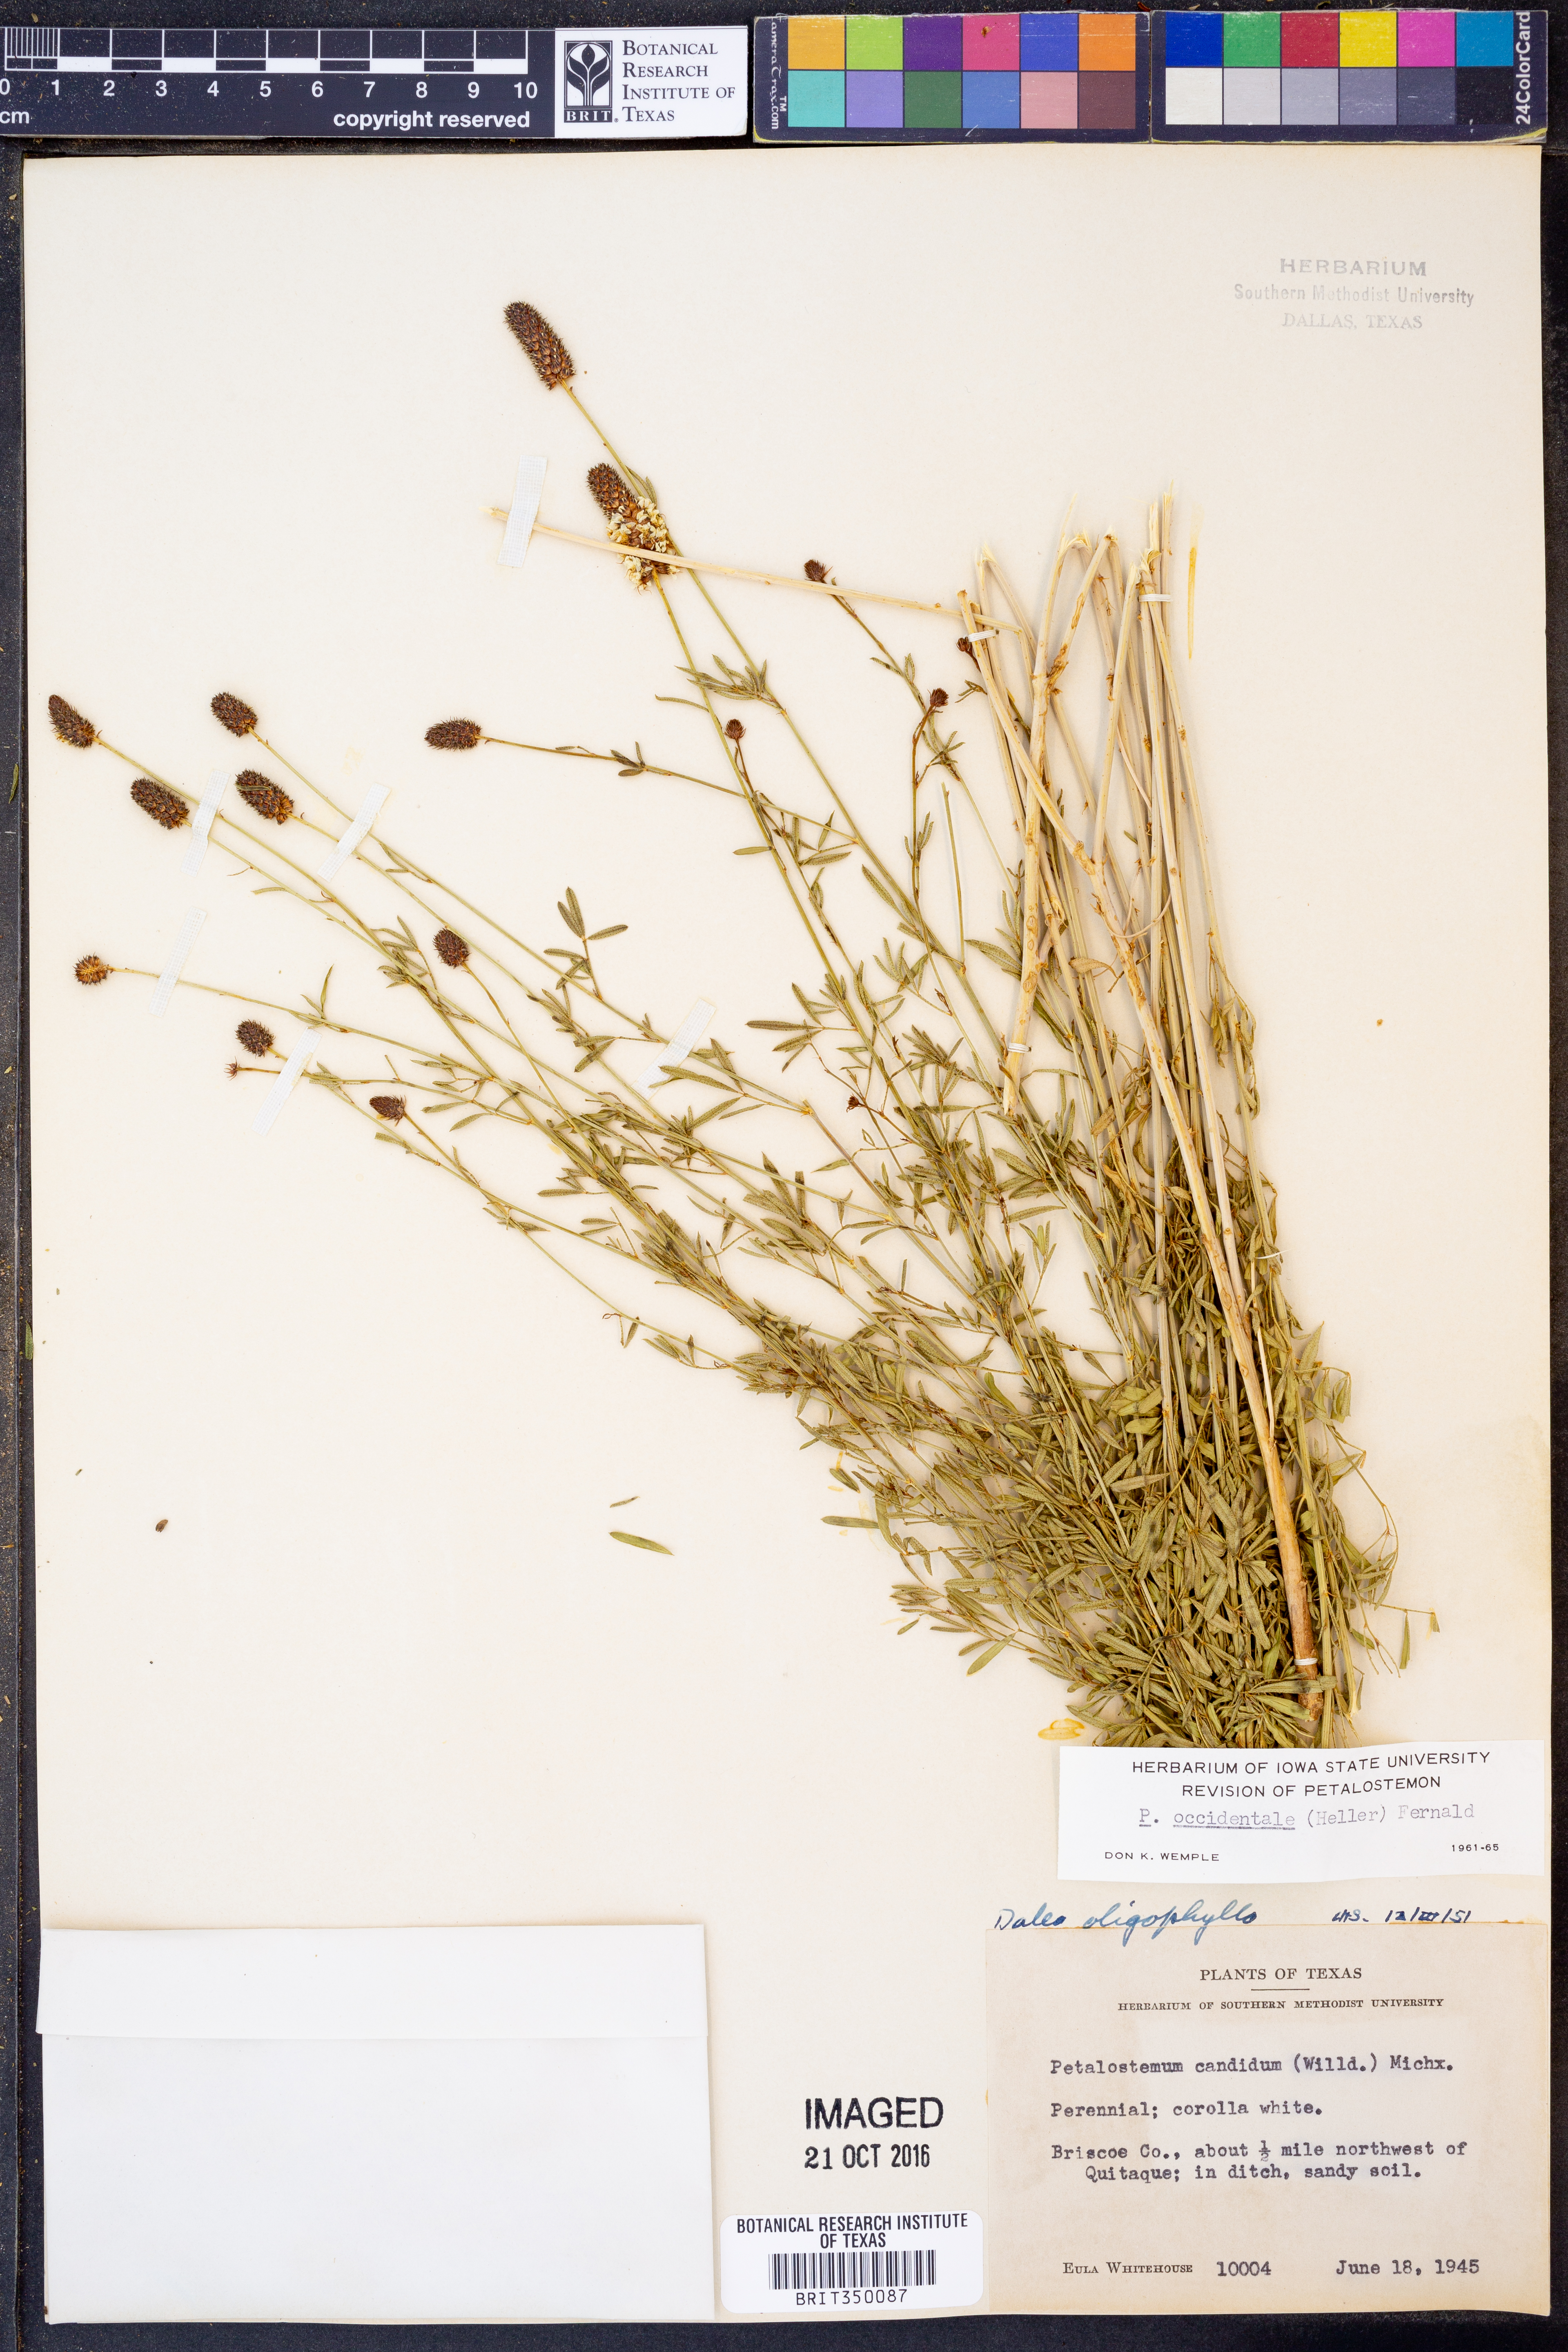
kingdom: Plantae
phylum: Tracheophyta
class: Magnoliopsida
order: Fabales
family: Fabaceae
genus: Dalea
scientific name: Dalea candida
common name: White prairie-clover
